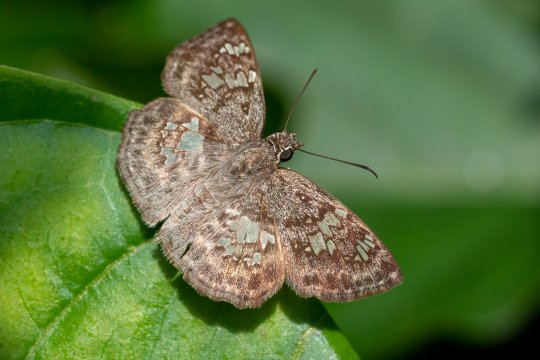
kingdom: Animalia
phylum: Arthropoda
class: Insecta
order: Lepidoptera
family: Hesperiidae
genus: Xenophanes
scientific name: Xenophanes tryxus
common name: Glassy-winged Skipper
